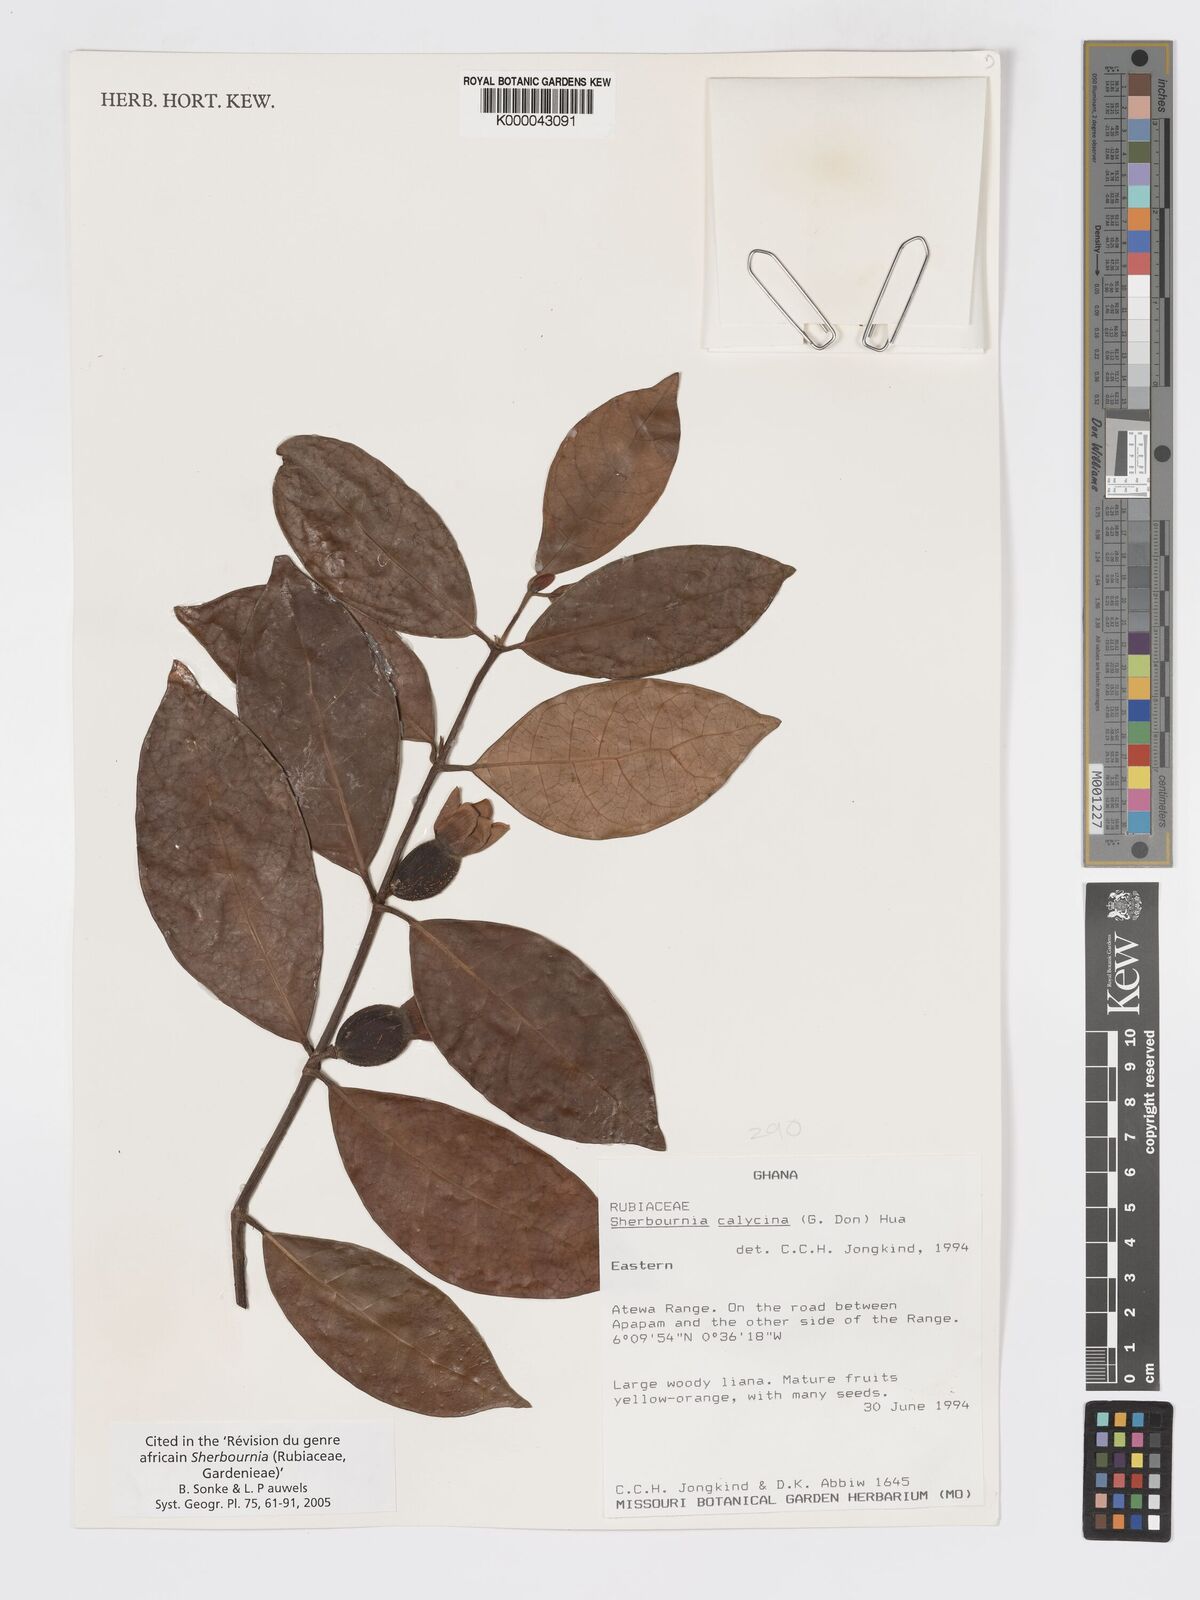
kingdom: Plantae
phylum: Tracheophyta
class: Magnoliopsida
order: Gentianales
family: Rubiaceae
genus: Sherbournia
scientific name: Sherbournia calycina
